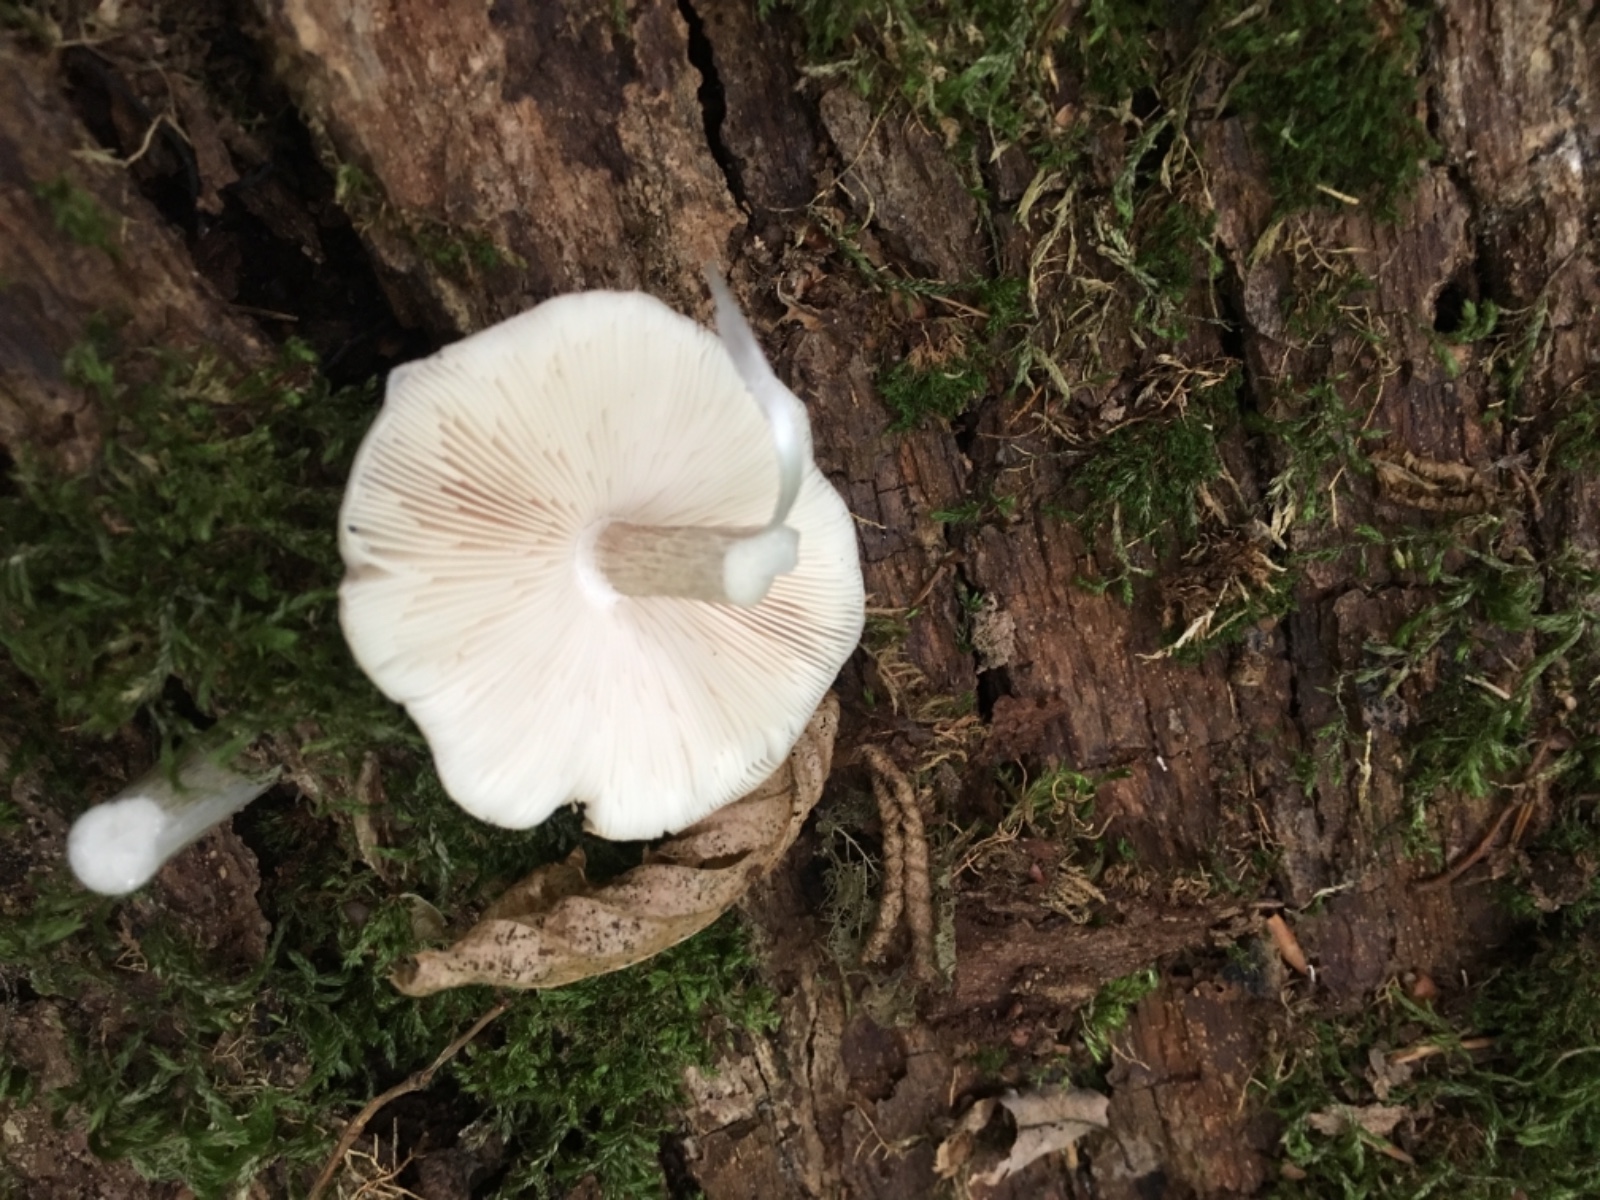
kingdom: Fungi
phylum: Basidiomycota
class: Agaricomycetes
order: Agaricales
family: Pluteaceae
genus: Pluteus
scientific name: Pluteus cervinus
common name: sodfarvet skærmhat
